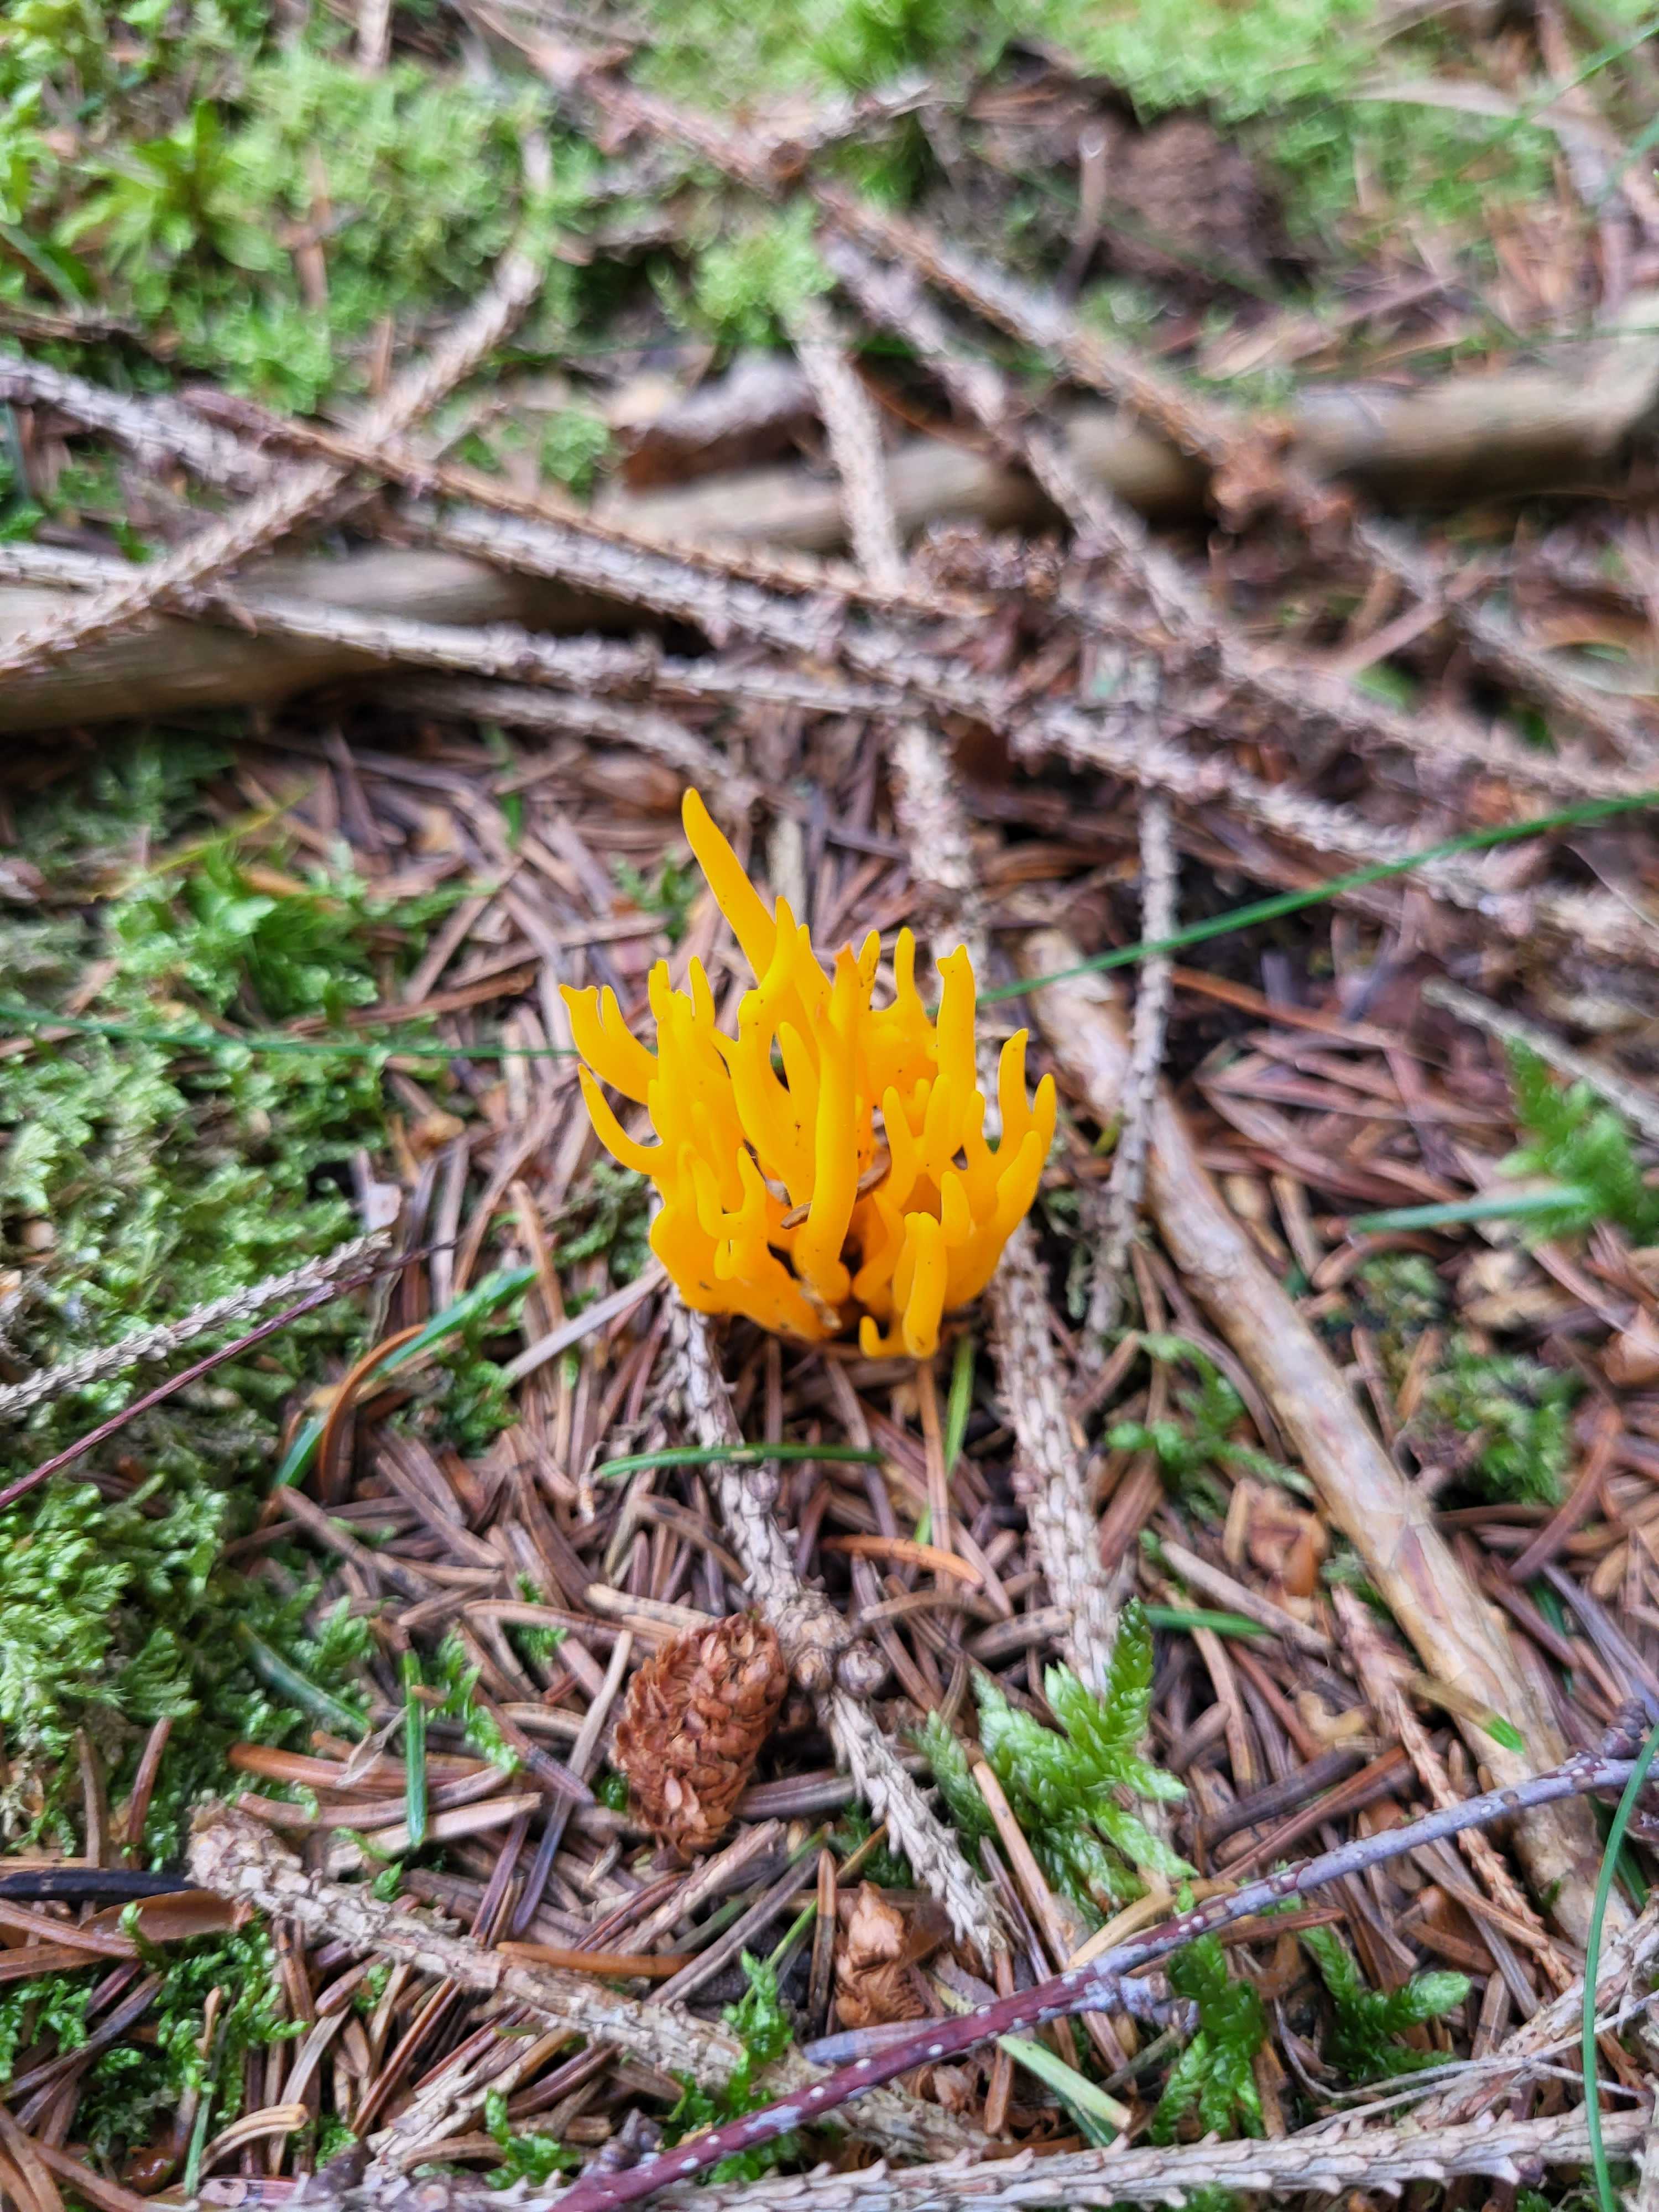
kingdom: Fungi
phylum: Basidiomycota
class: Dacrymycetes
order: Dacrymycetales
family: Dacrymycetaceae
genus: Calocera
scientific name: Calocera viscosa
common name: almindelig guldgaffel
